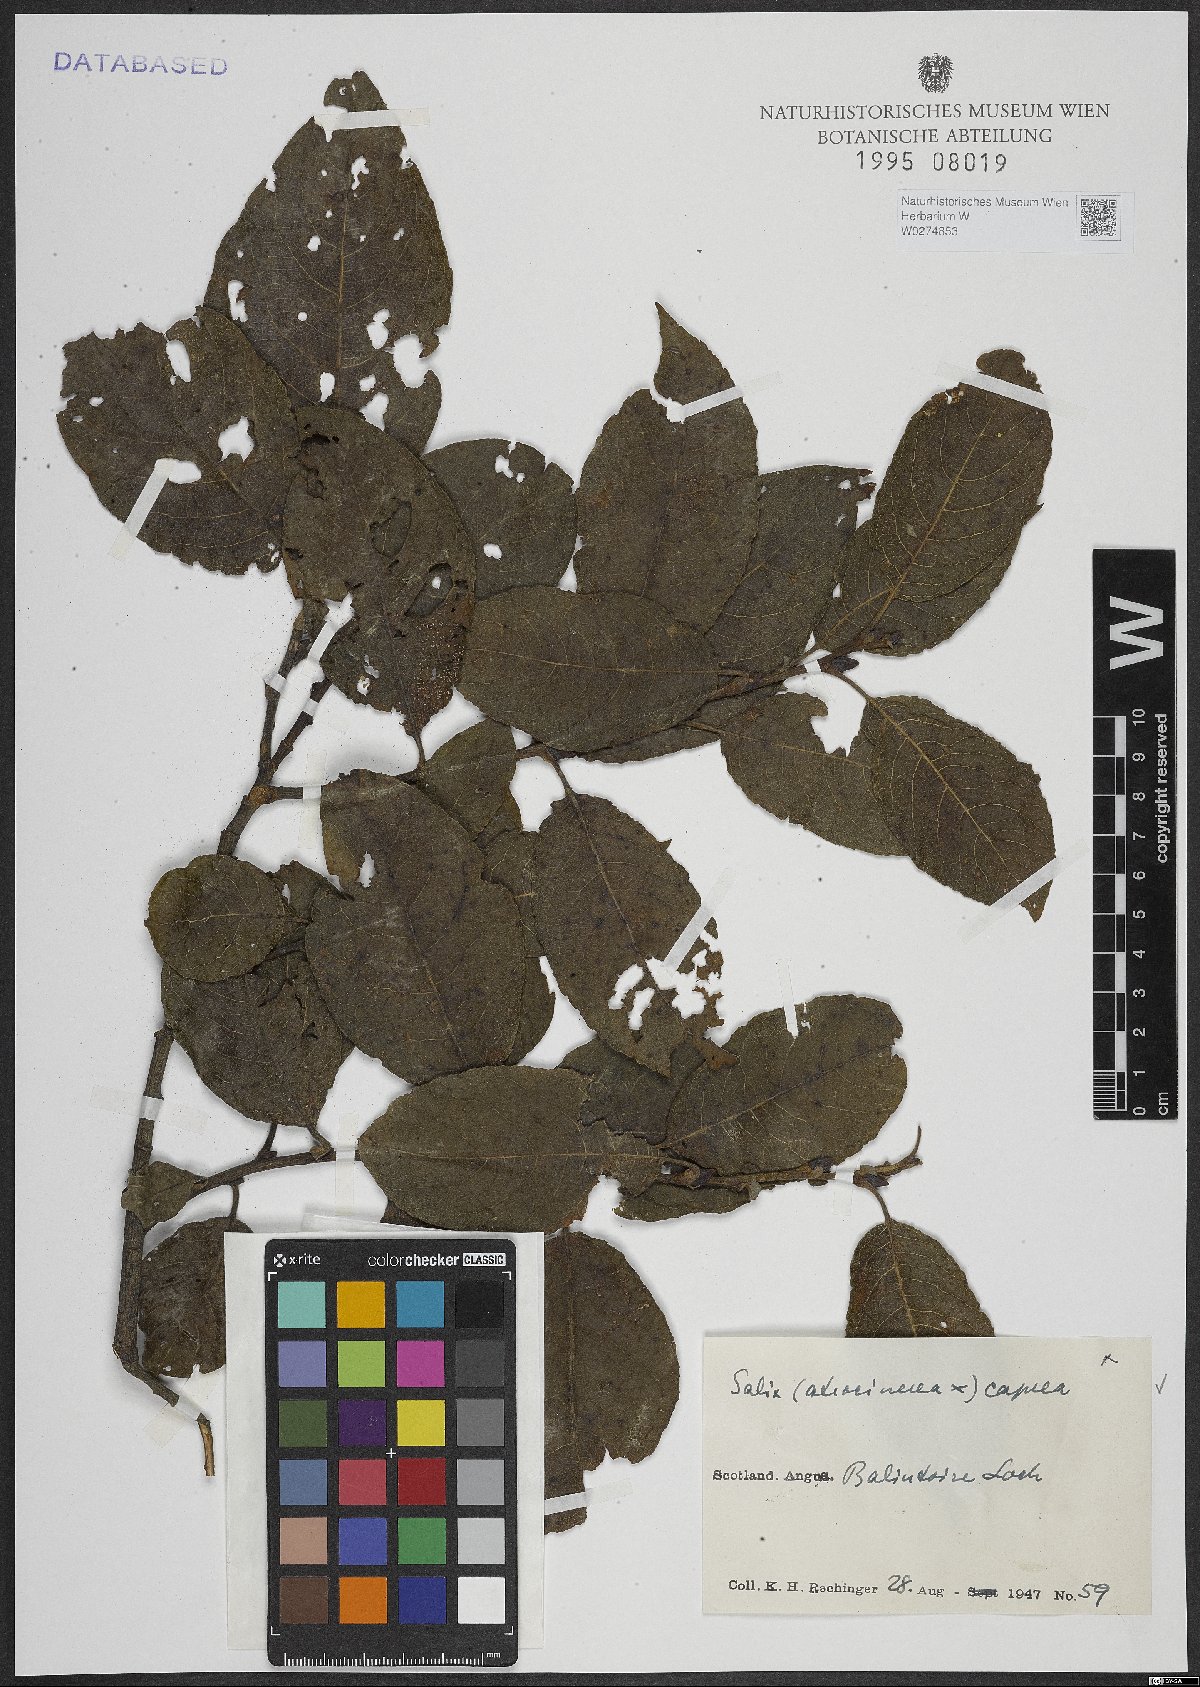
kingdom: Plantae
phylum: Tracheophyta
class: Magnoliopsida
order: Malpighiales
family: Salicaceae
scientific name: Salicaceae
